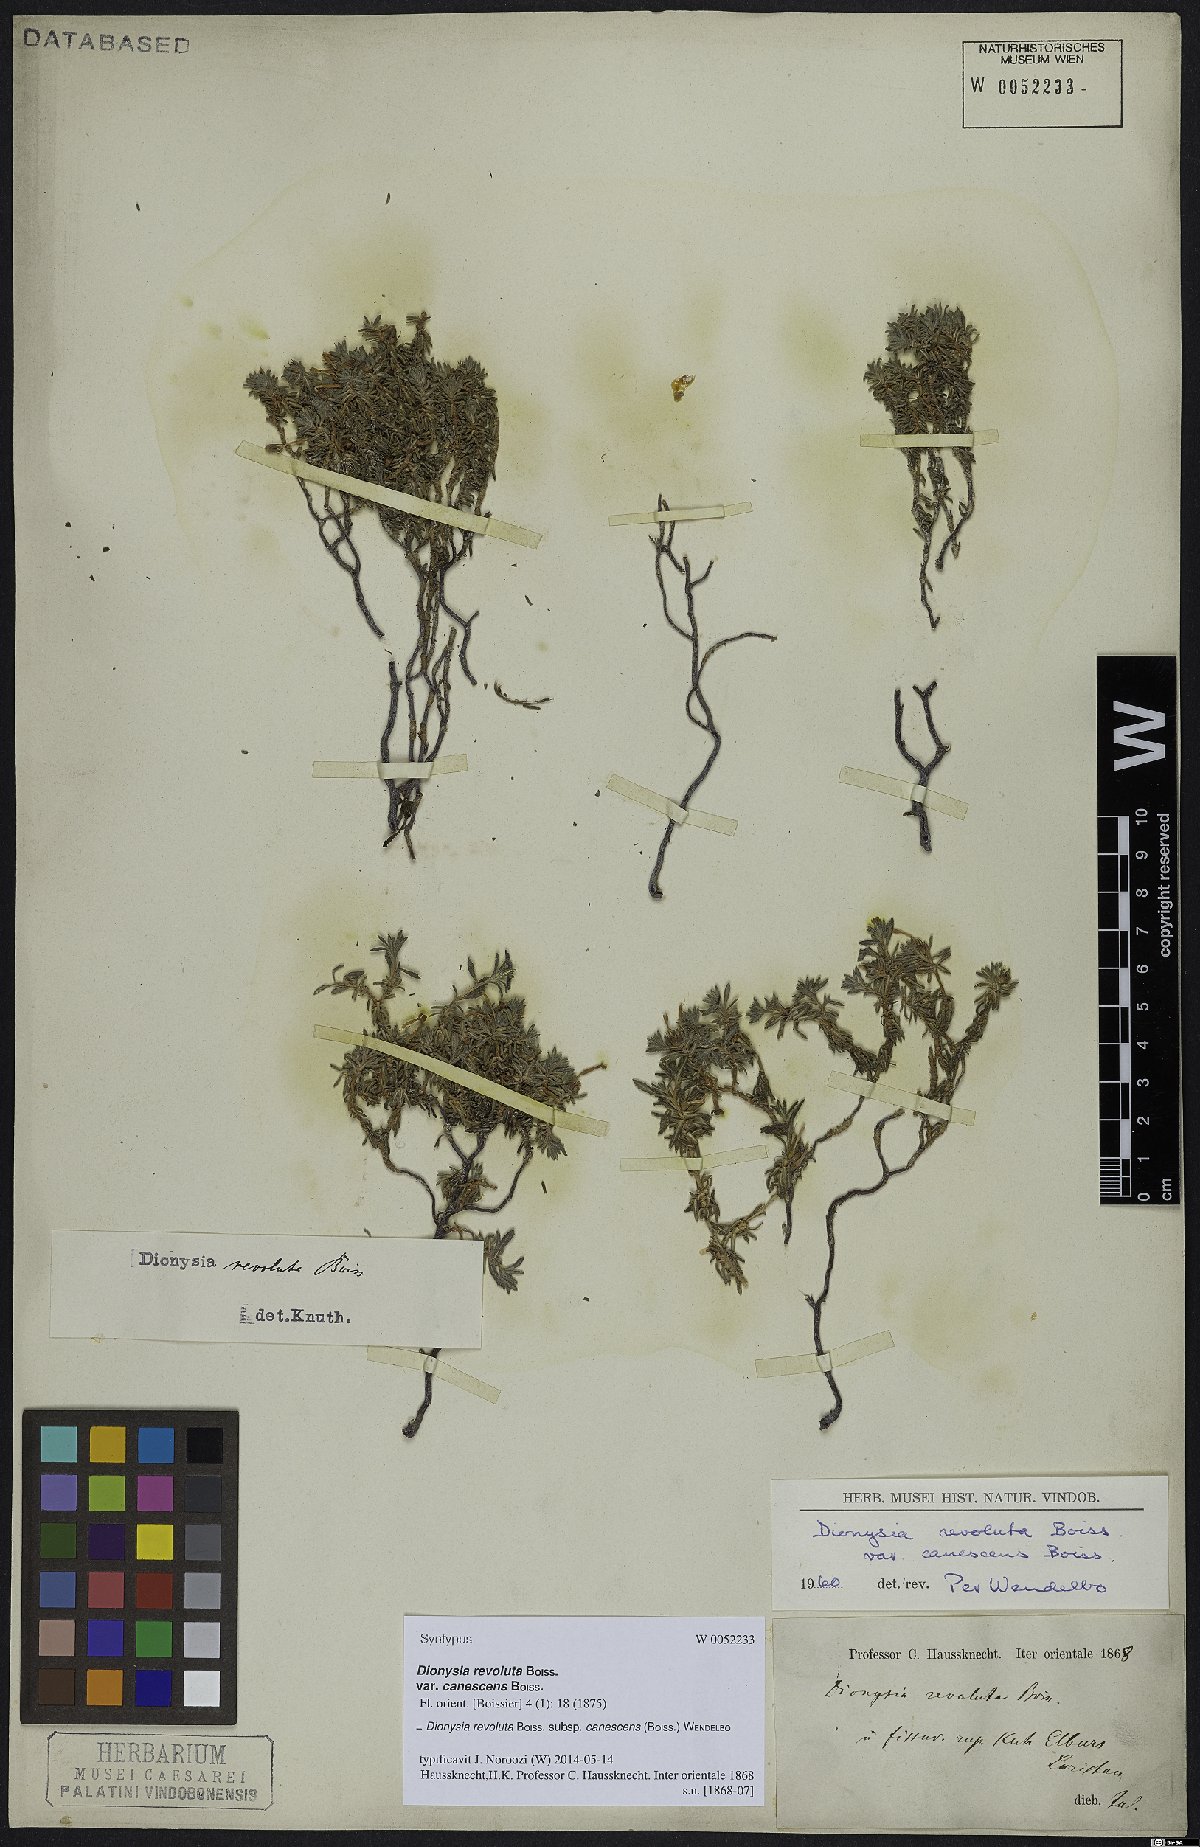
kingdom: Plantae
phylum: Tracheophyta
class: Magnoliopsida
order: Ericales
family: Primulaceae
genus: Dionysia
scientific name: Dionysia revoluta
